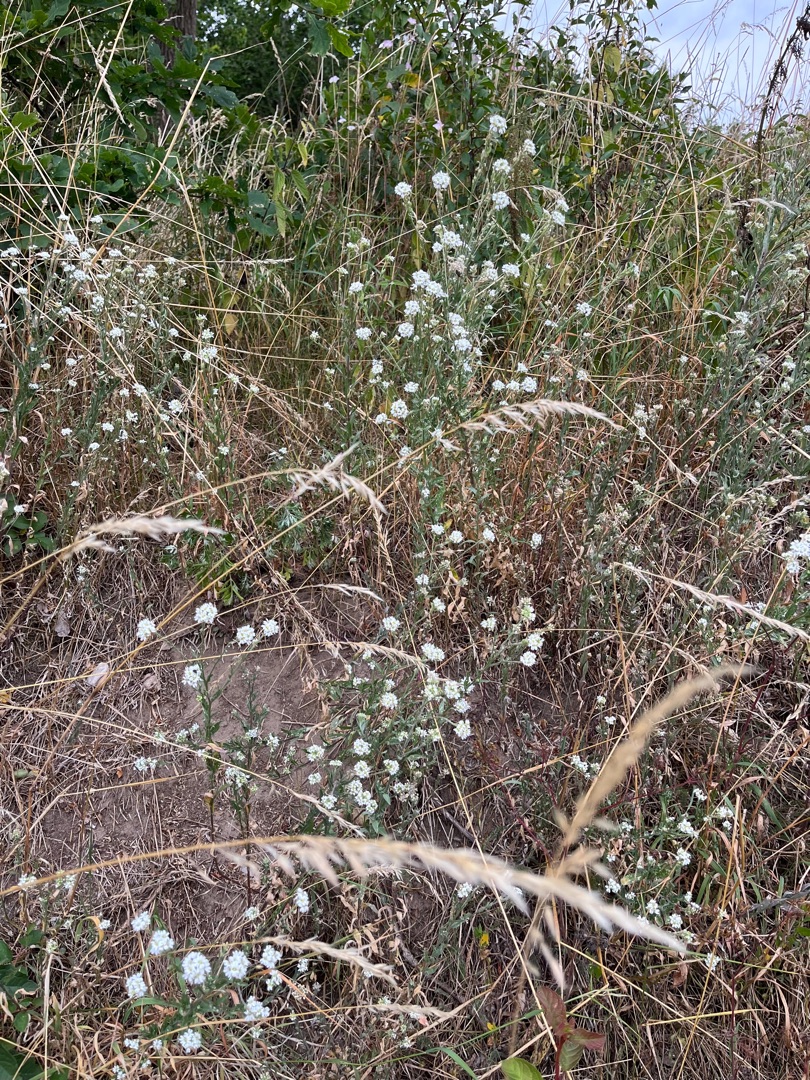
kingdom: Plantae
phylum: Tracheophyta
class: Magnoliopsida
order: Brassicales
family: Brassicaceae
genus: Berteroa
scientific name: Berteroa incana
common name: Kløvplade
